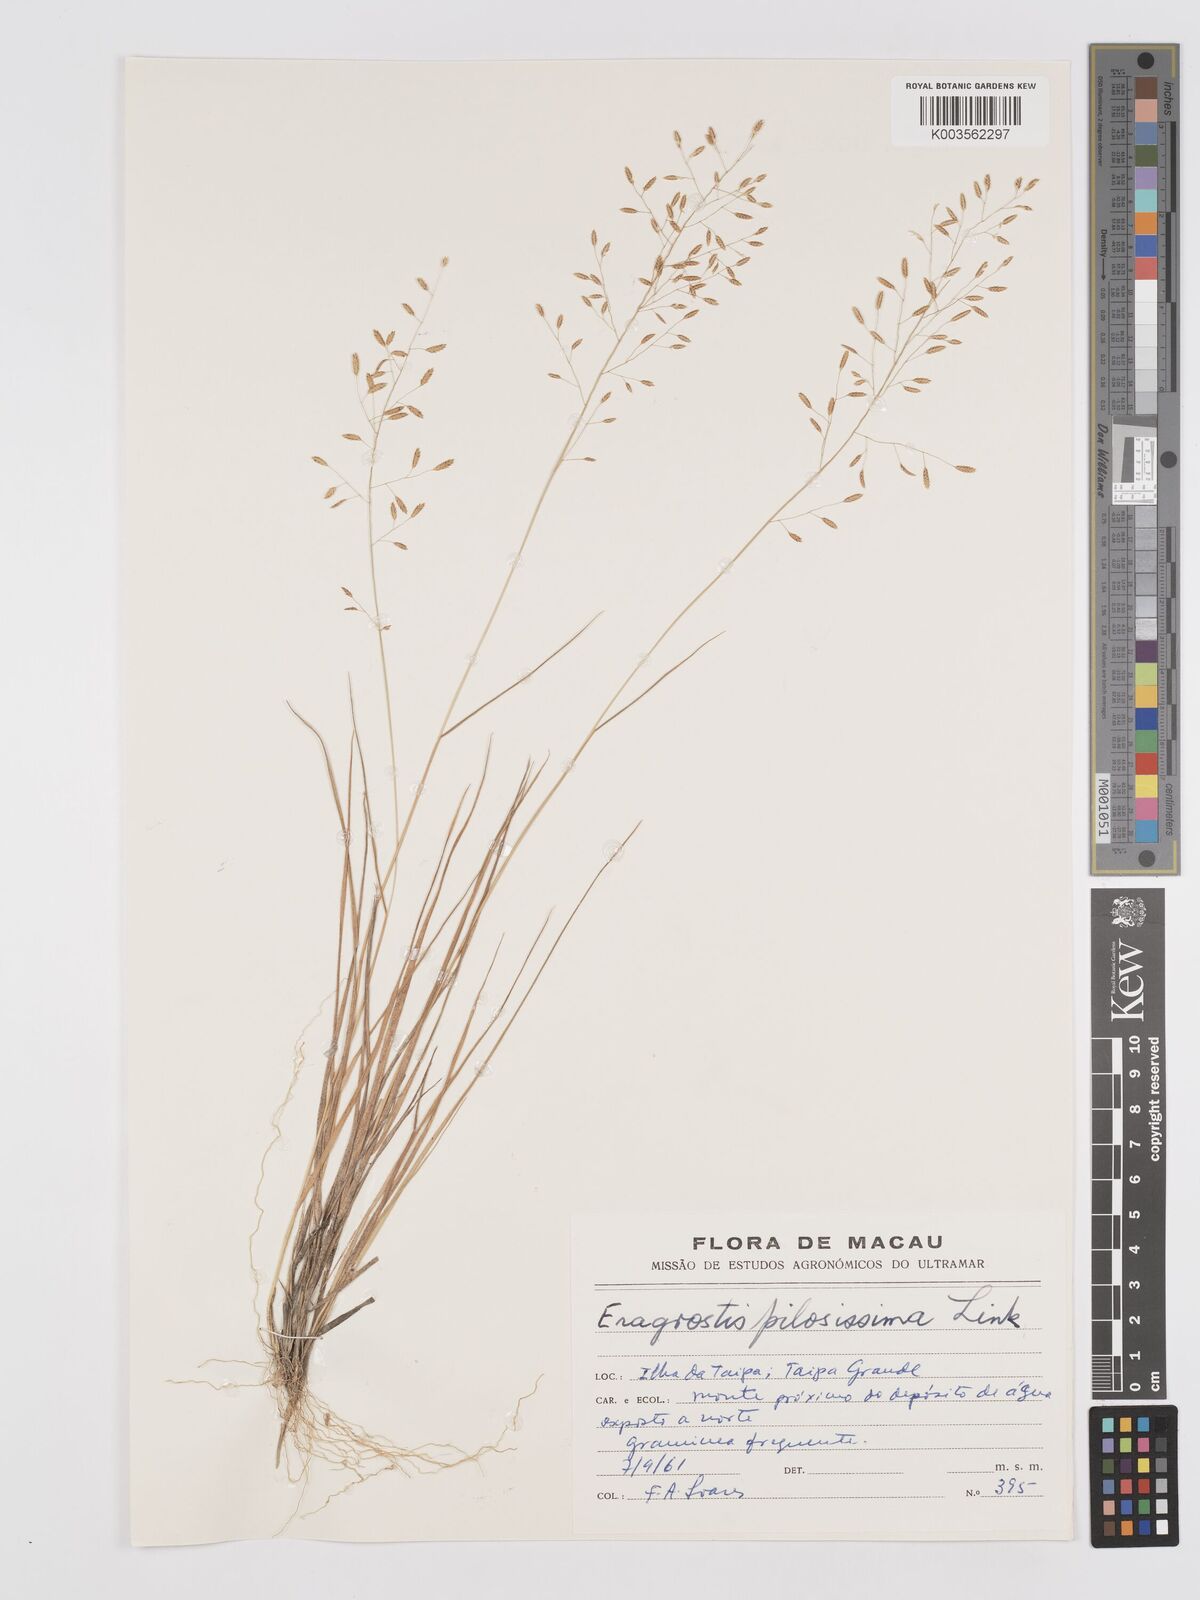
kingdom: Plantae
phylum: Tracheophyta
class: Liliopsida
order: Poales
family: Poaceae
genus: Eragrostis
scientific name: Eragrostis pilosissima
